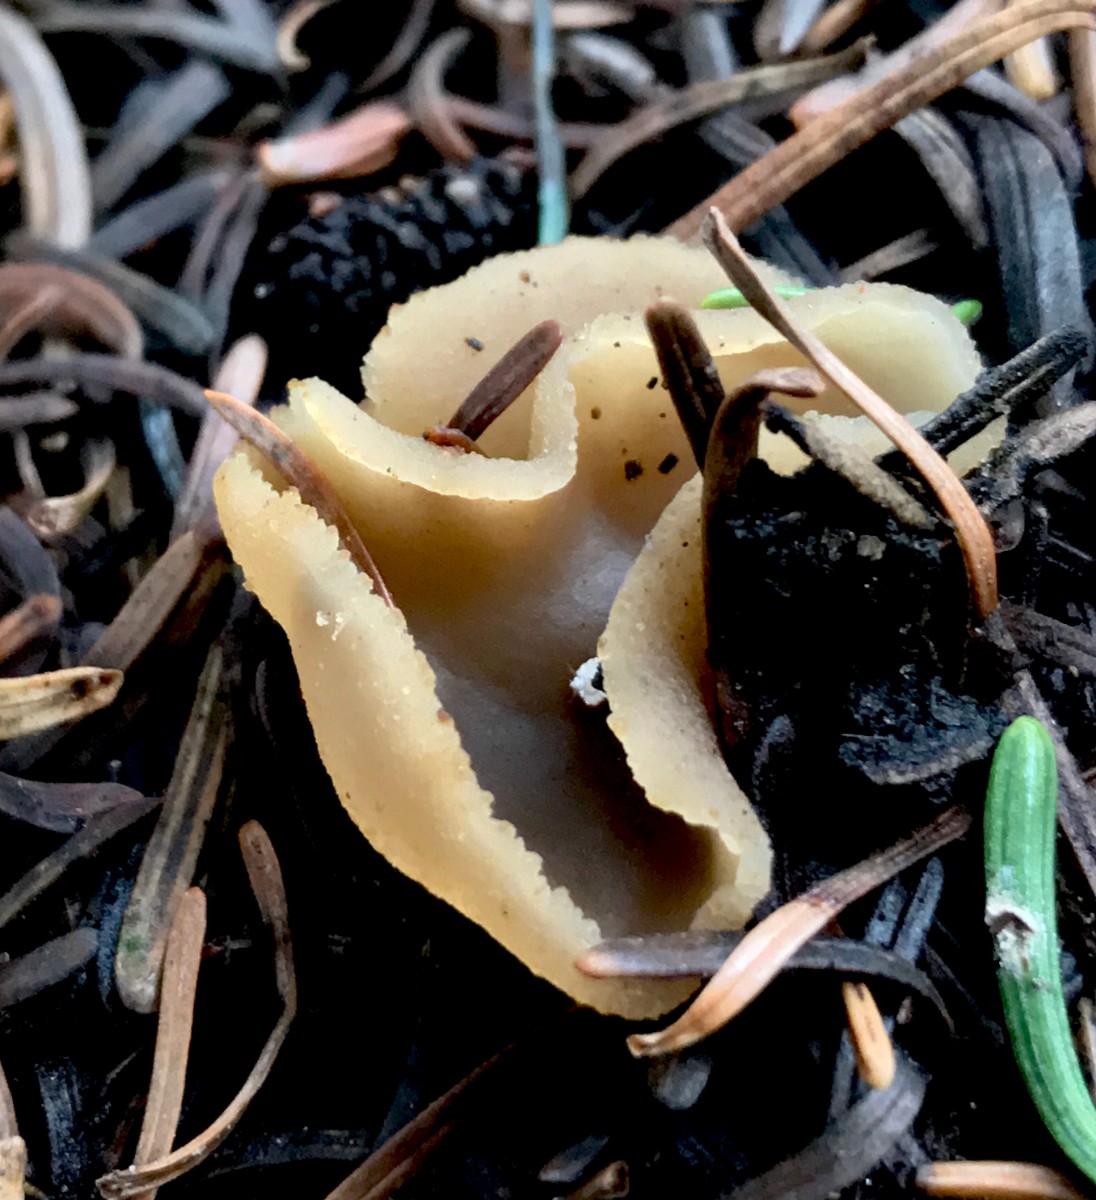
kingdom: Fungi
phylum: Ascomycota
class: Pezizomycetes
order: Pezizales
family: Pezizaceae
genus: Peziza
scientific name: Peziza
